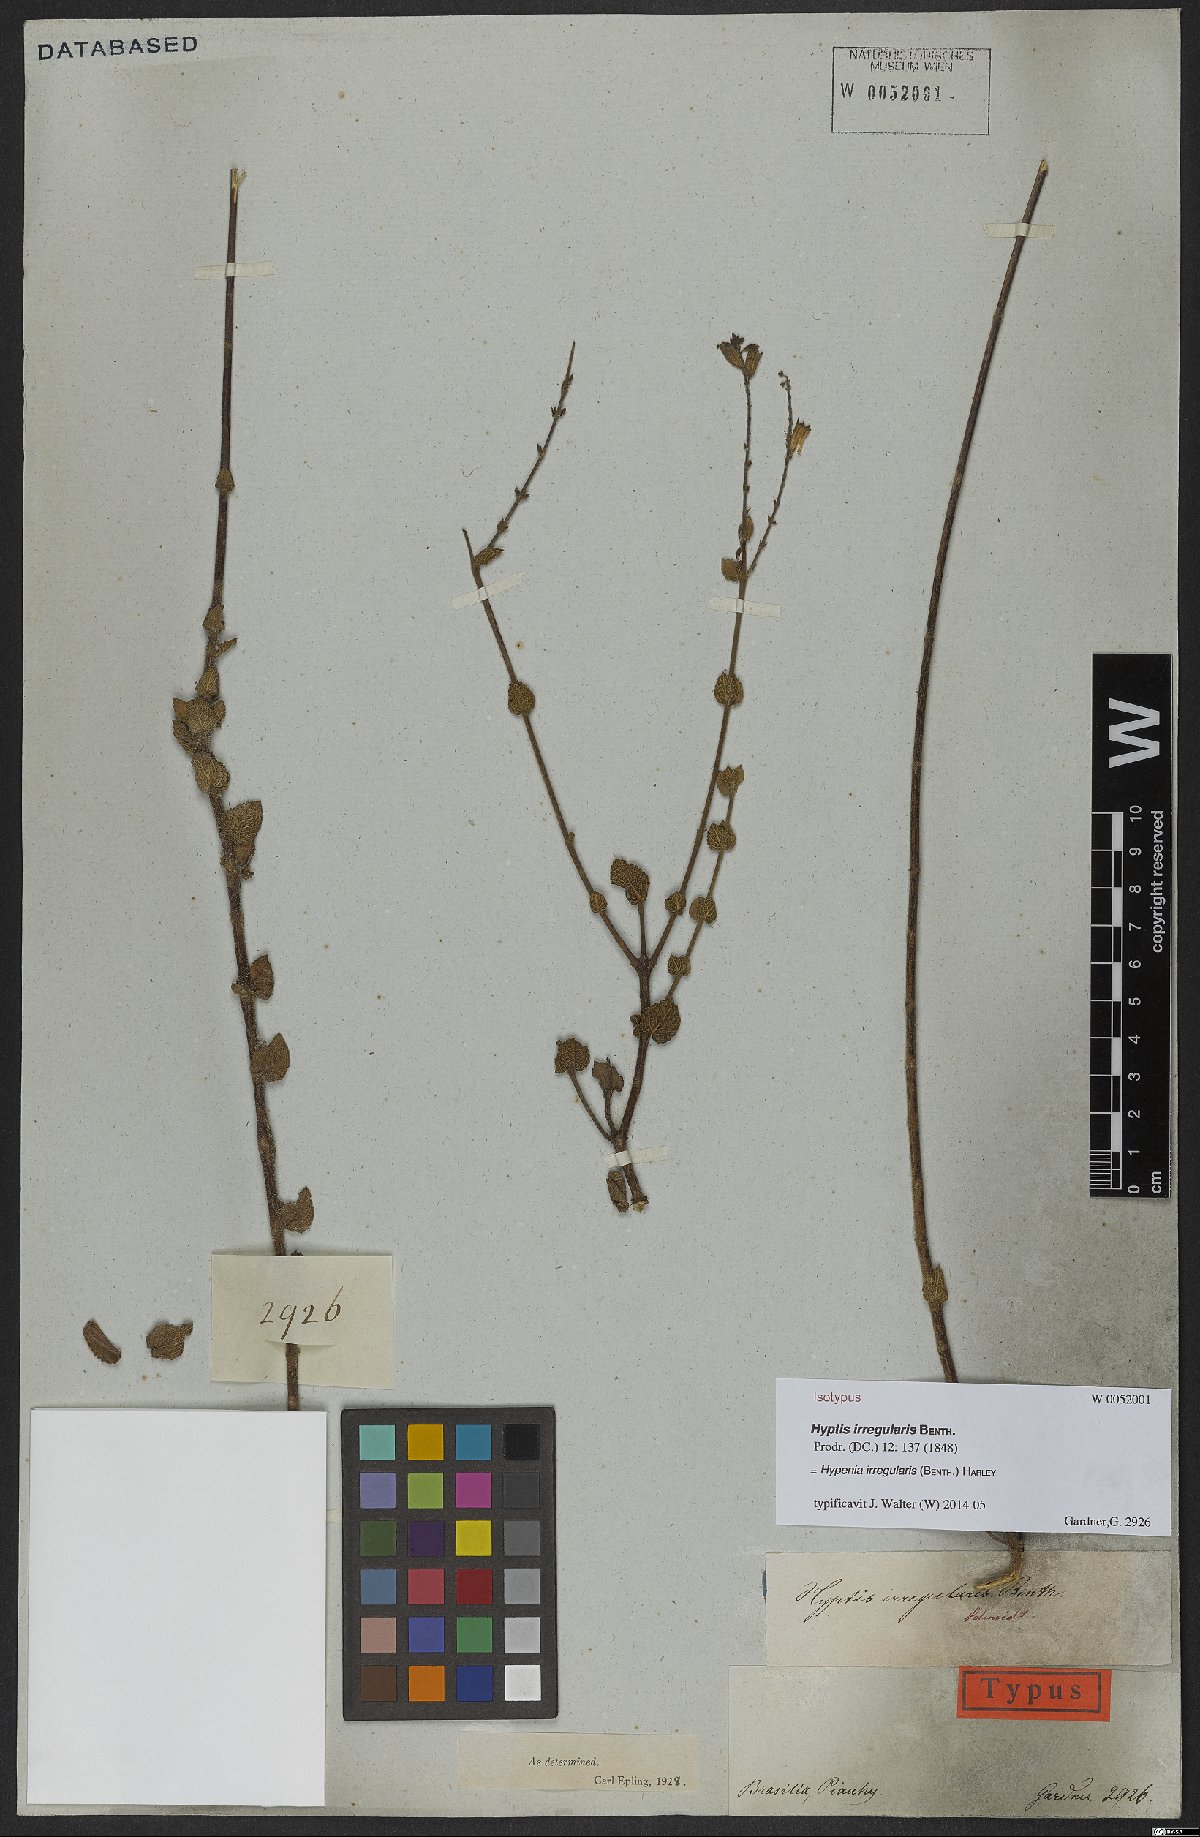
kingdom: Plantae
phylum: Tracheophyta
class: Magnoliopsida
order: Lamiales
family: Lamiaceae
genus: Hypenia
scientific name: Hypenia irregularis
